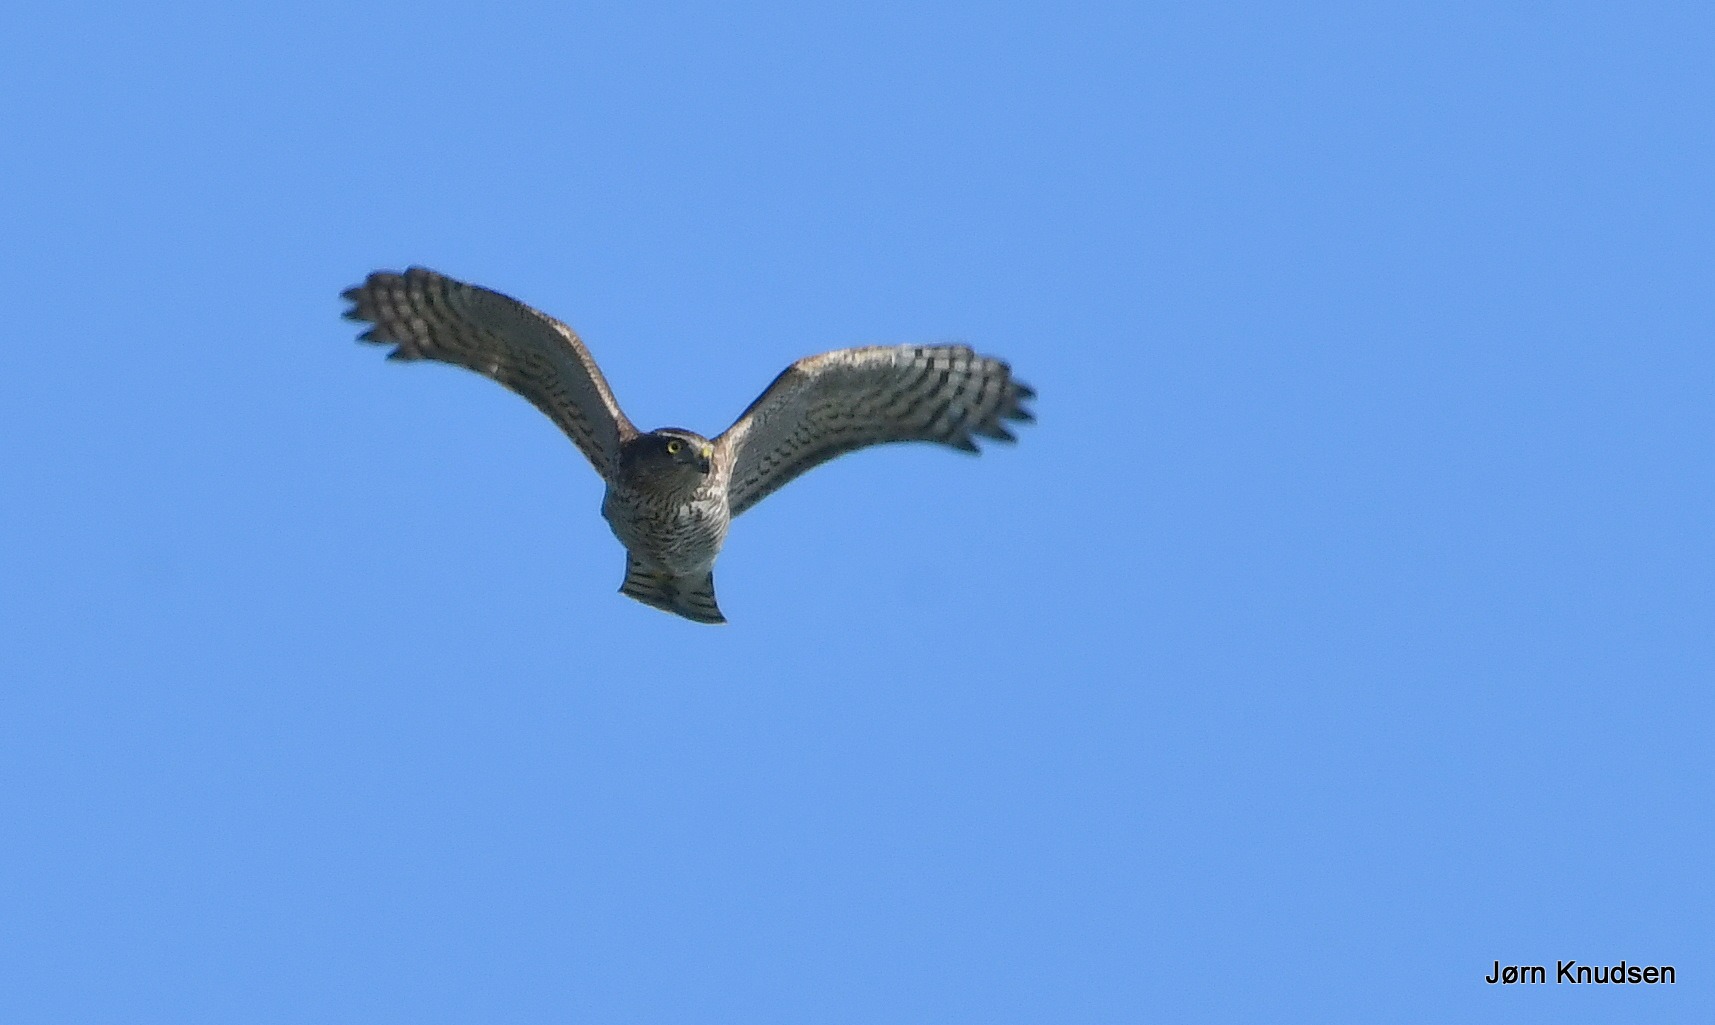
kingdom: Animalia
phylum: Chordata
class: Aves
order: Accipitriformes
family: Accipitridae
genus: Accipiter
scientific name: Accipiter nisus
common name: Spurvehøg
